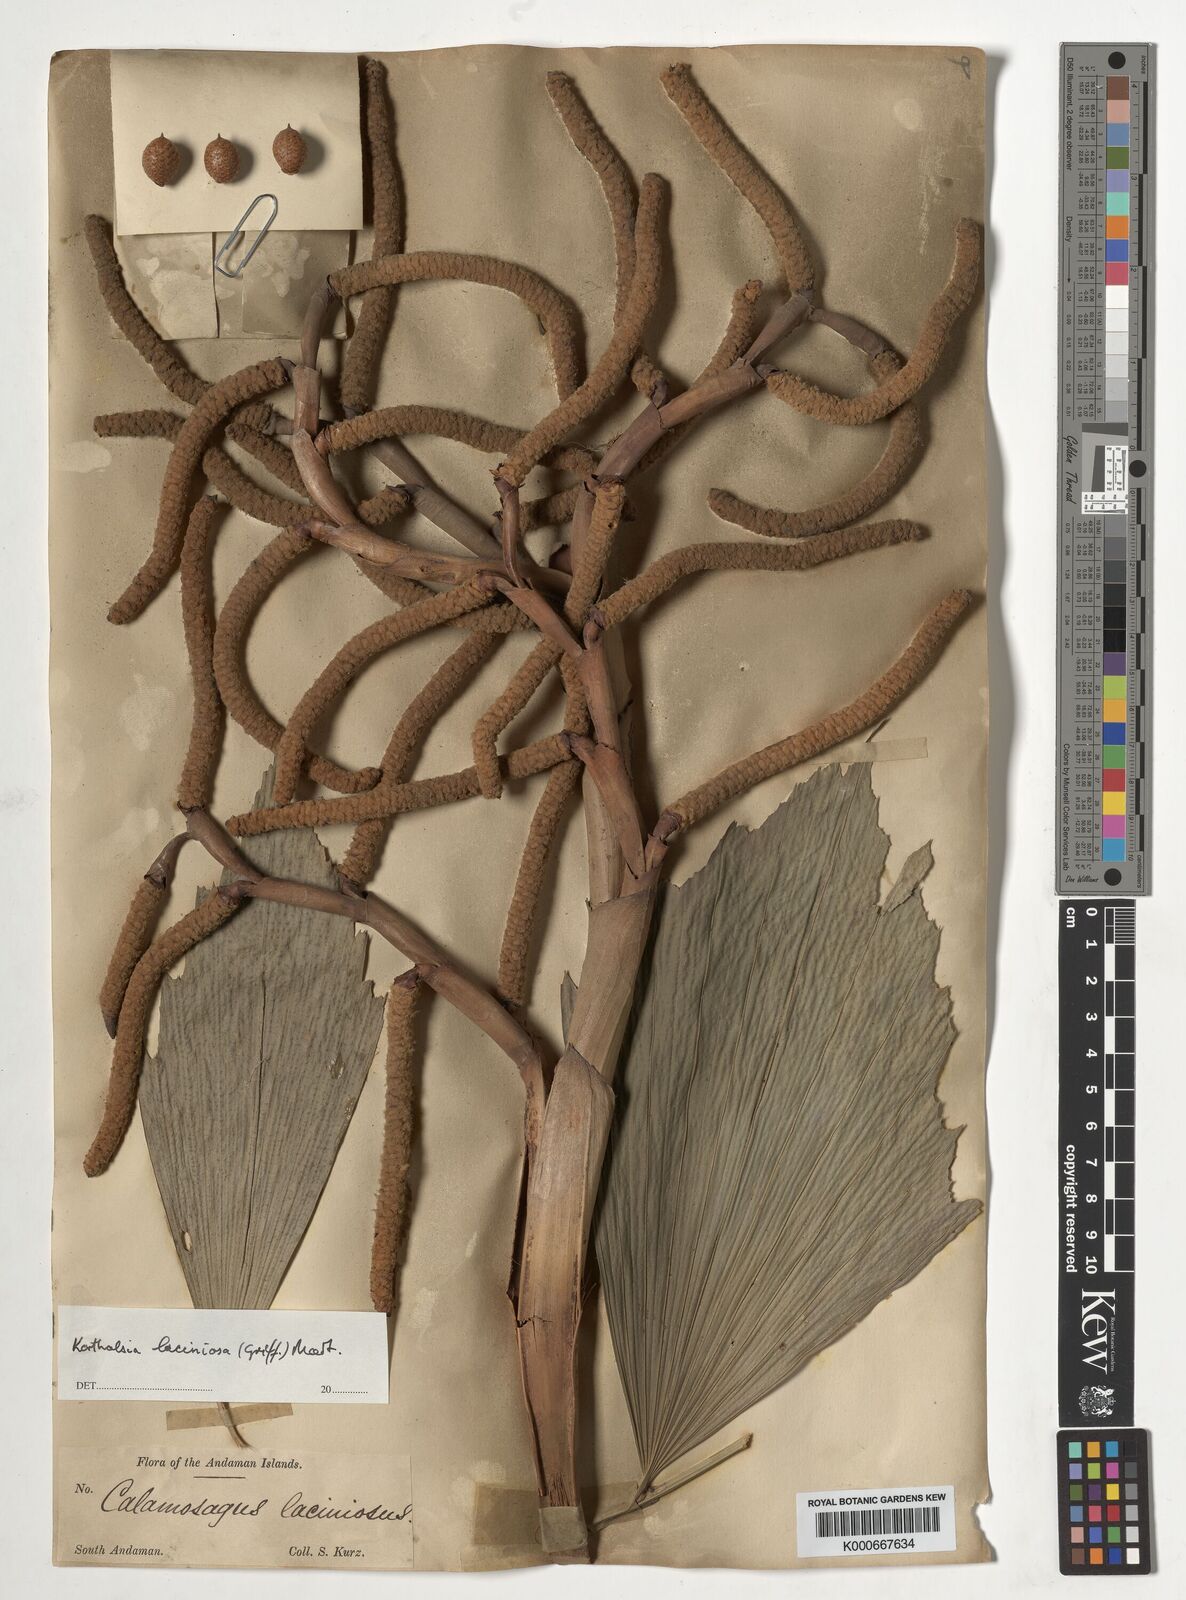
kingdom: Plantae
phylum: Tracheophyta
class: Liliopsida
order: Arecales
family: Arecaceae
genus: Korthalsia
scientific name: Korthalsia laciniosa
